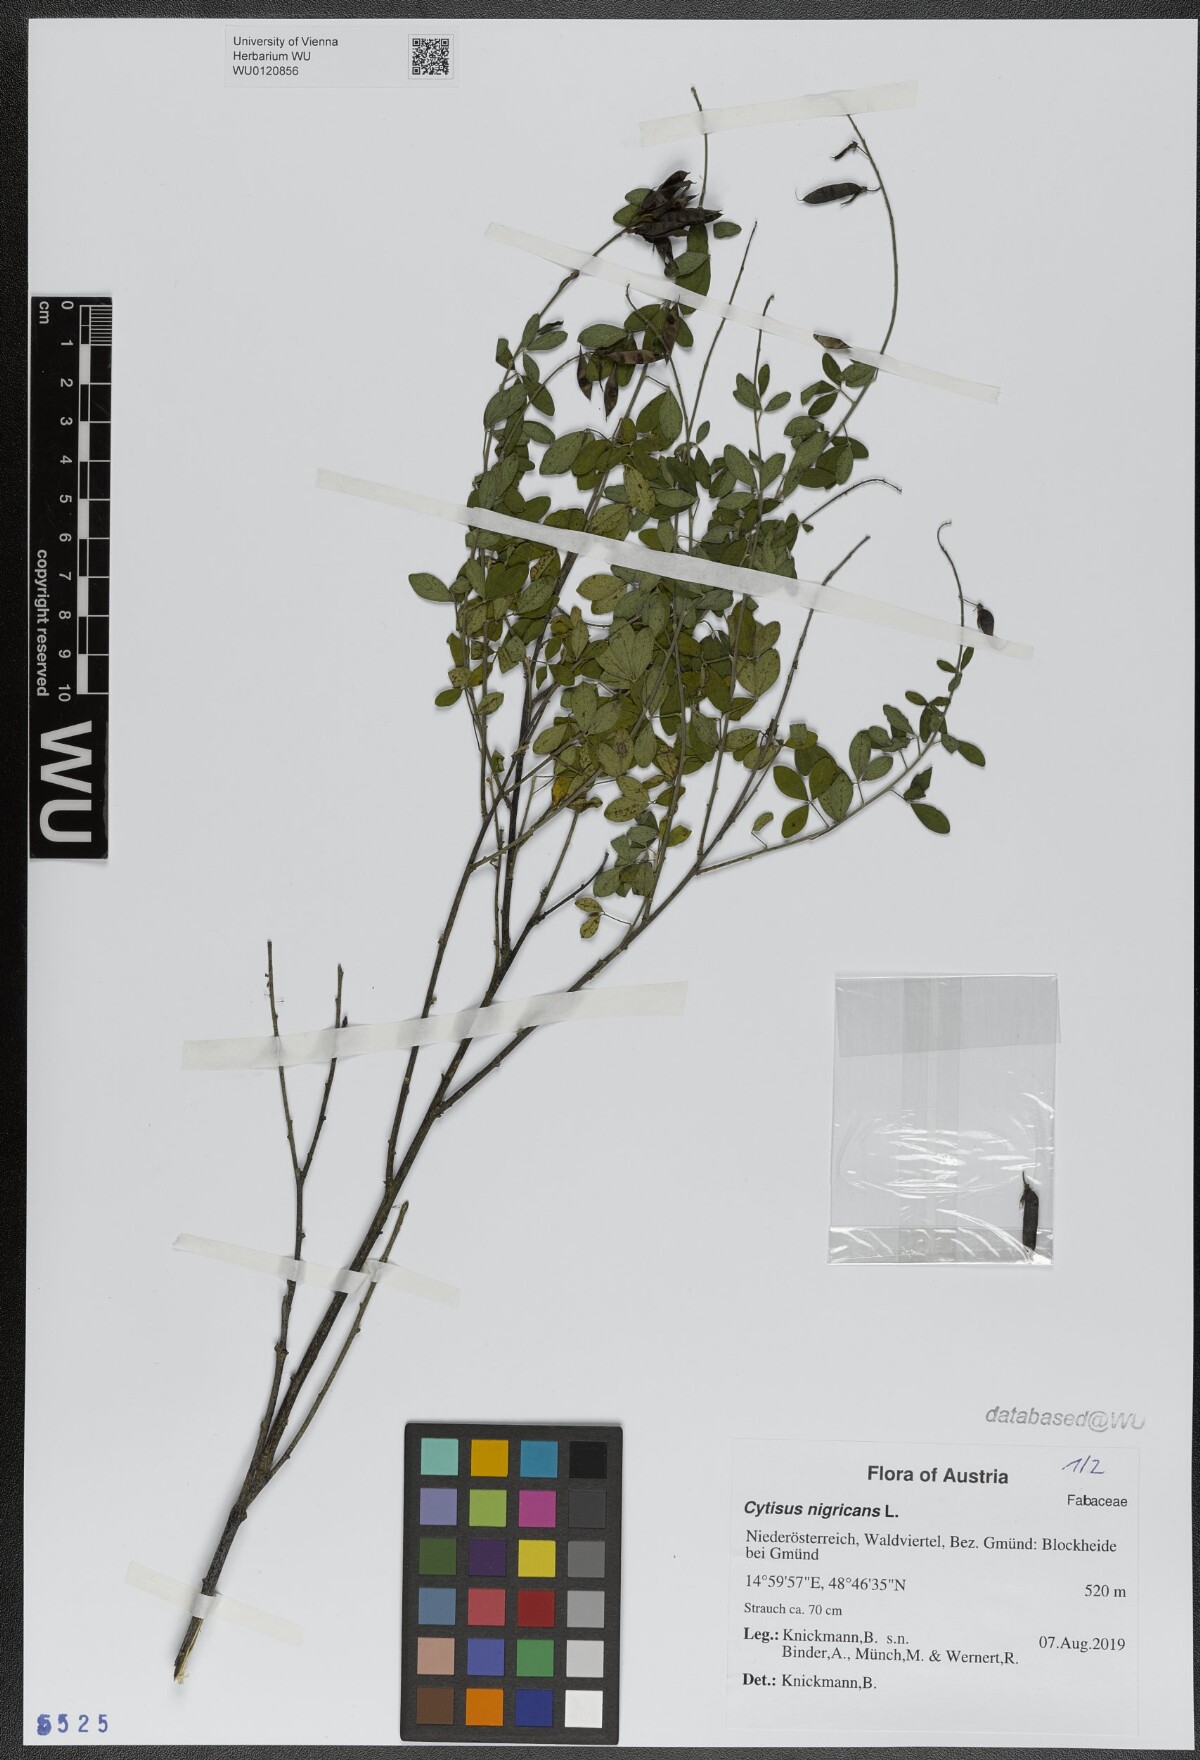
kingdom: Plantae
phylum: Tracheophyta
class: Magnoliopsida
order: Fabales
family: Fabaceae
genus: Cytisus
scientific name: Cytisus nigricans
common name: Black broom
